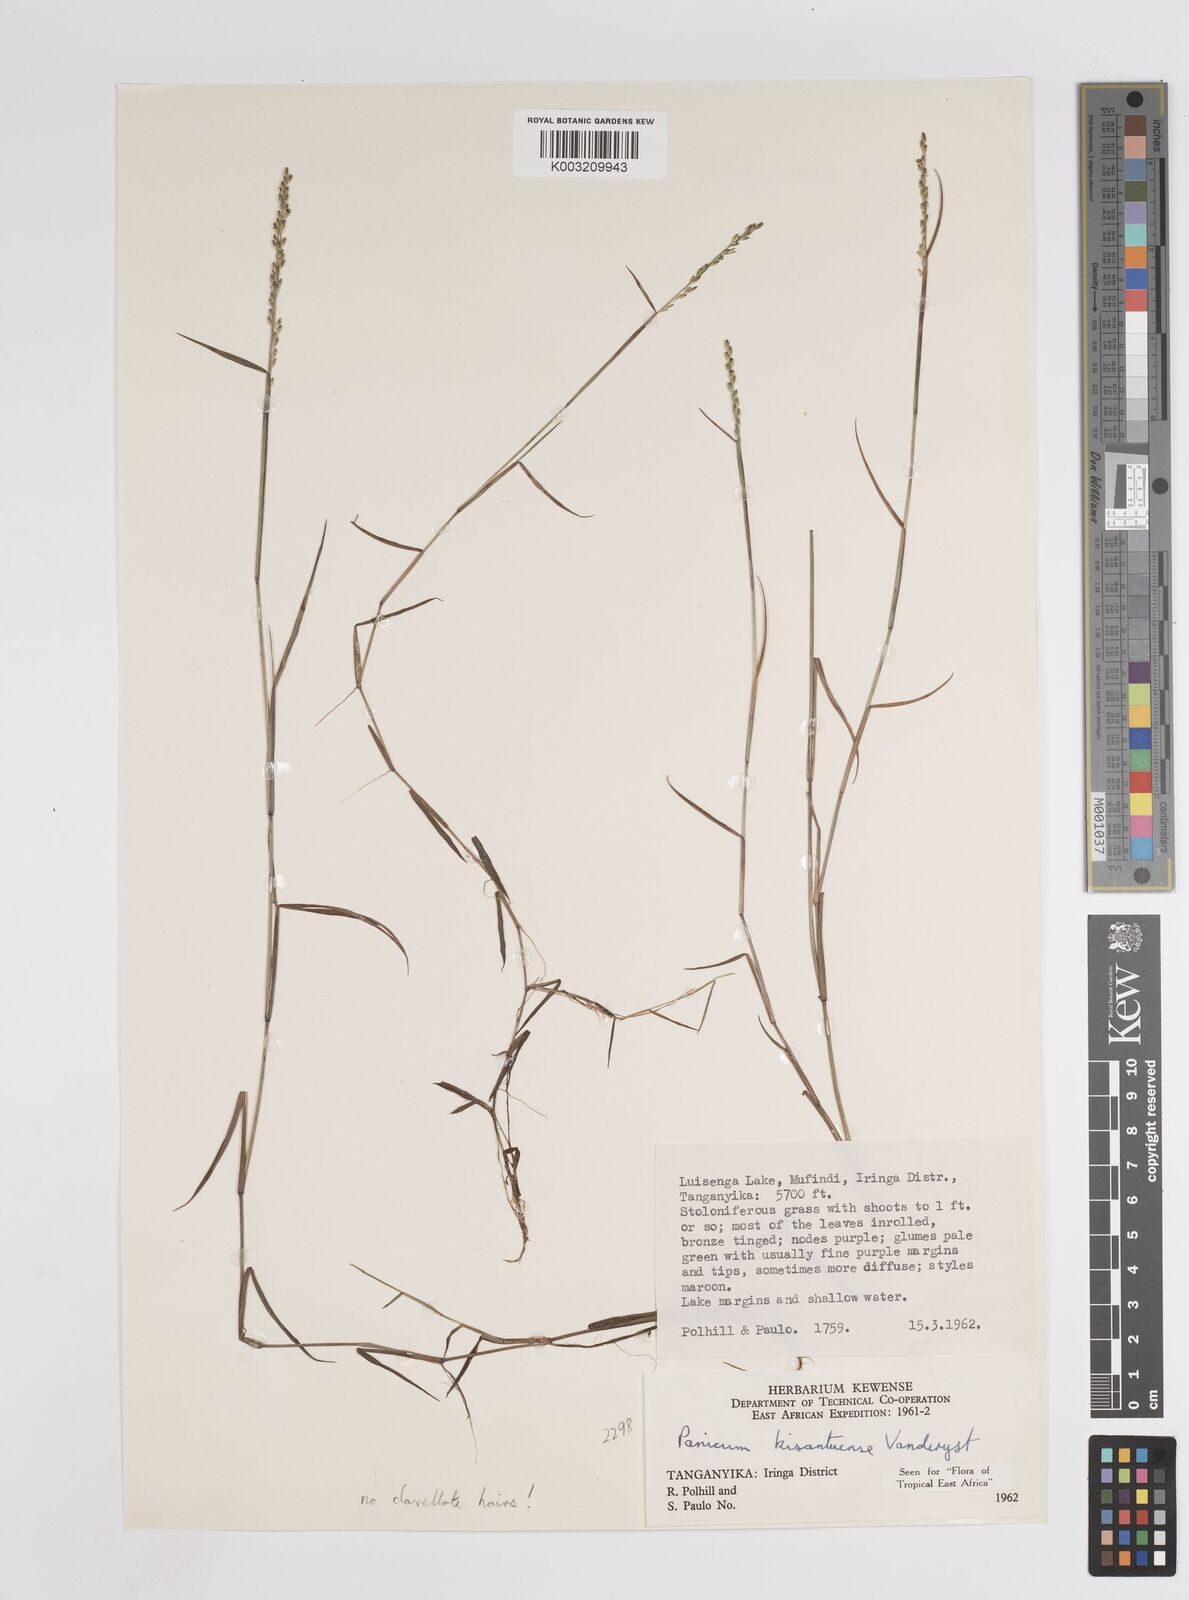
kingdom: Plantae
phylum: Tracheophyta
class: Liliopsida
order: Poales
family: Poaceae
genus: Adenochloa
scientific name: Adenochloa hymeniochila
